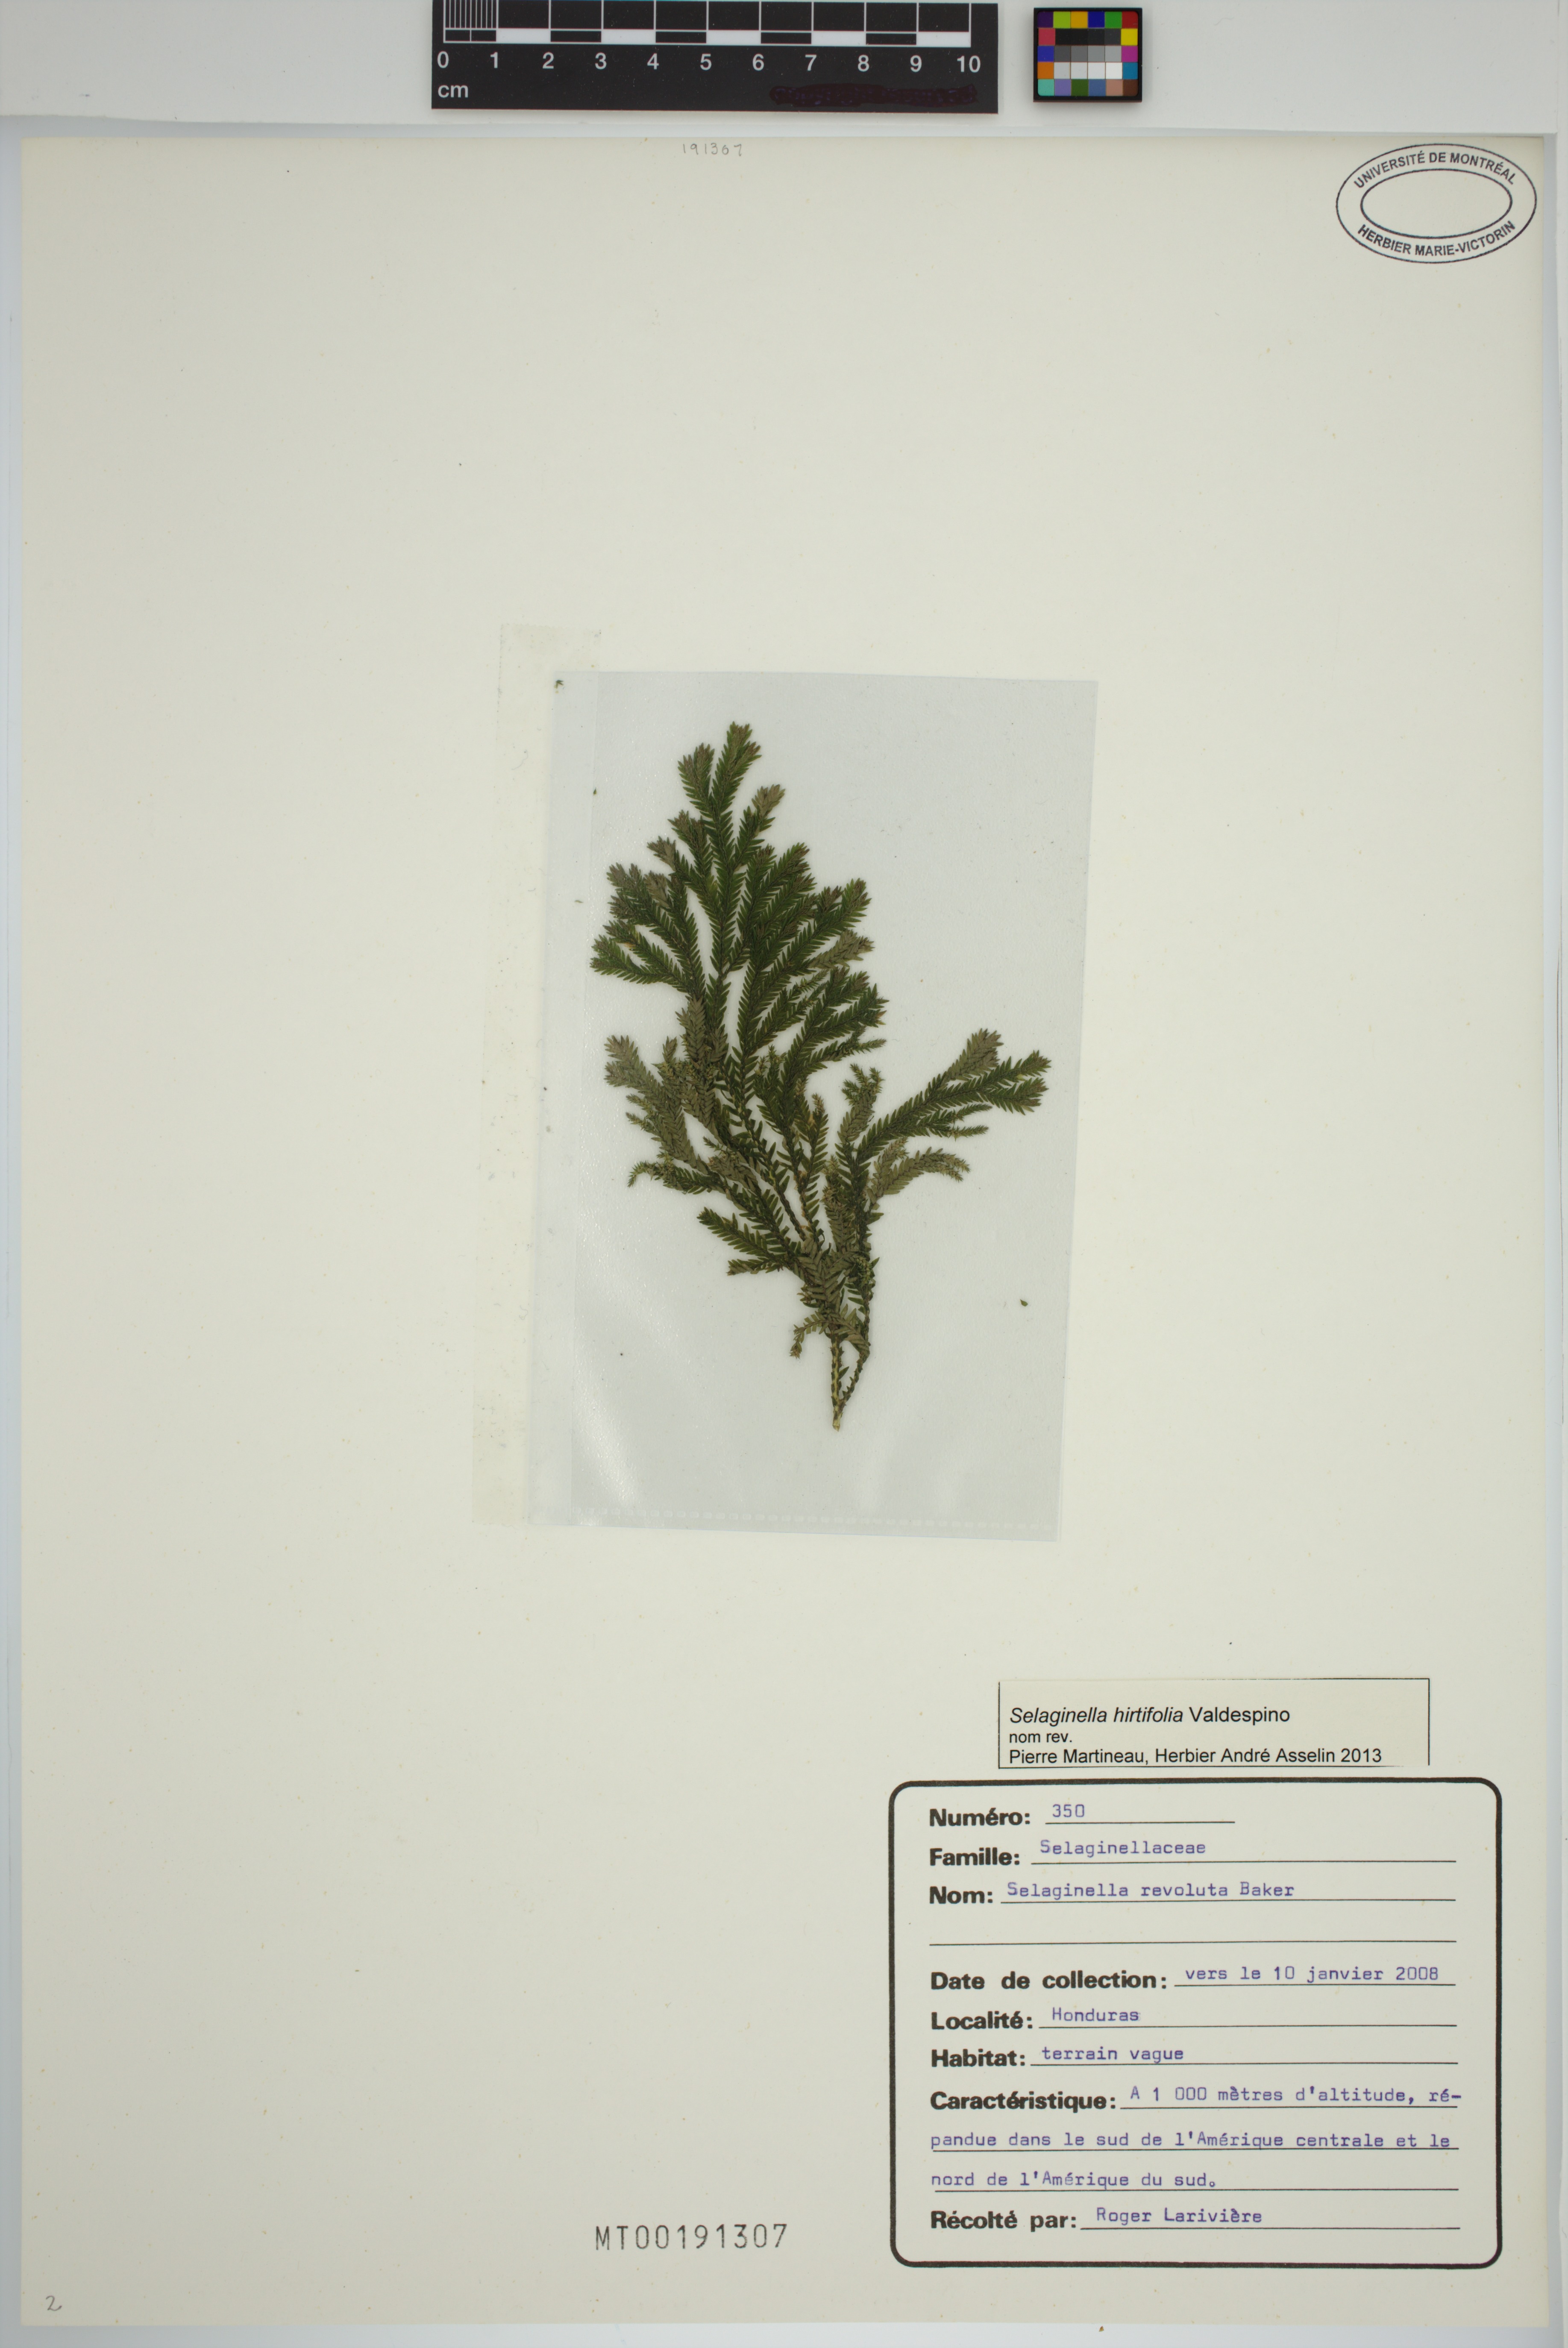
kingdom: Plantae
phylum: Tracheophyta
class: Lycopodiopsida
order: Selaginellales
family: Selaginellaceae
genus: Selaginella
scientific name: Selaginella hirtifolia
